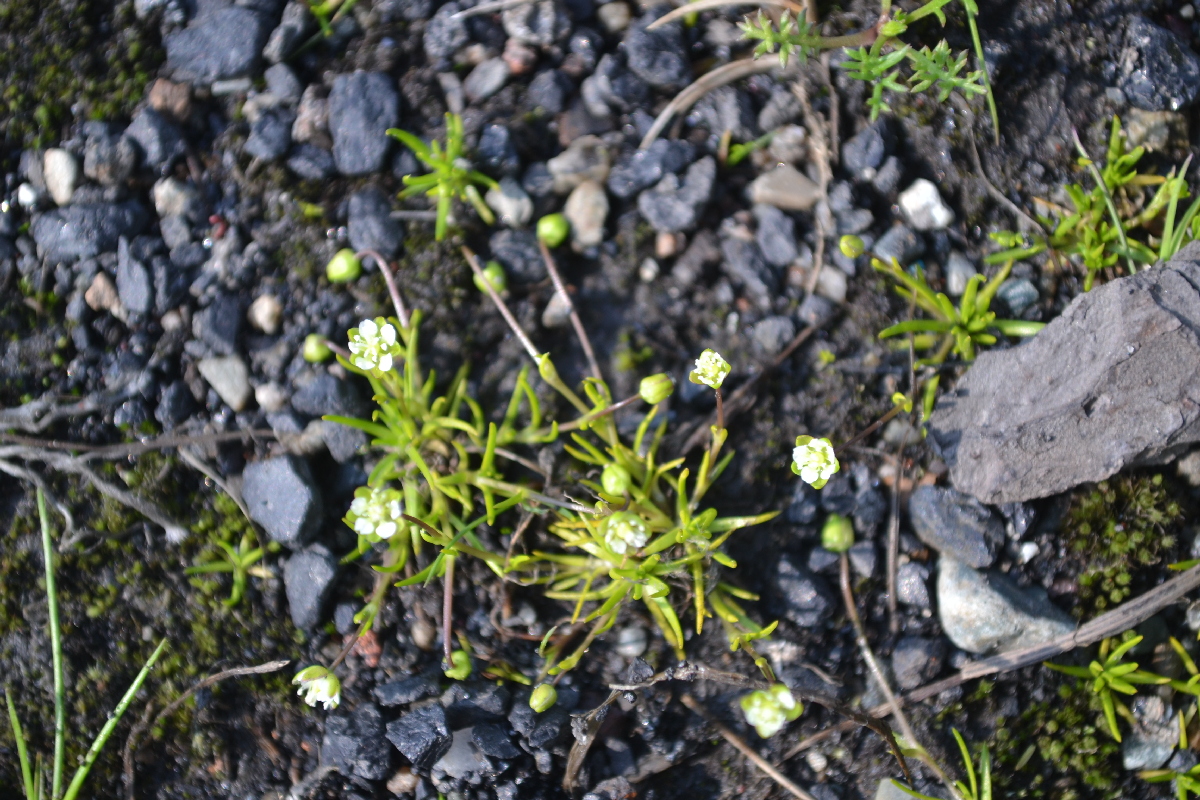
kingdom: Plantae
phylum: Tracheophyta
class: Magnoliopsida
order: Caryophyllales
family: Caryophyllaceae
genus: Sagina
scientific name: Sagina nivalis
